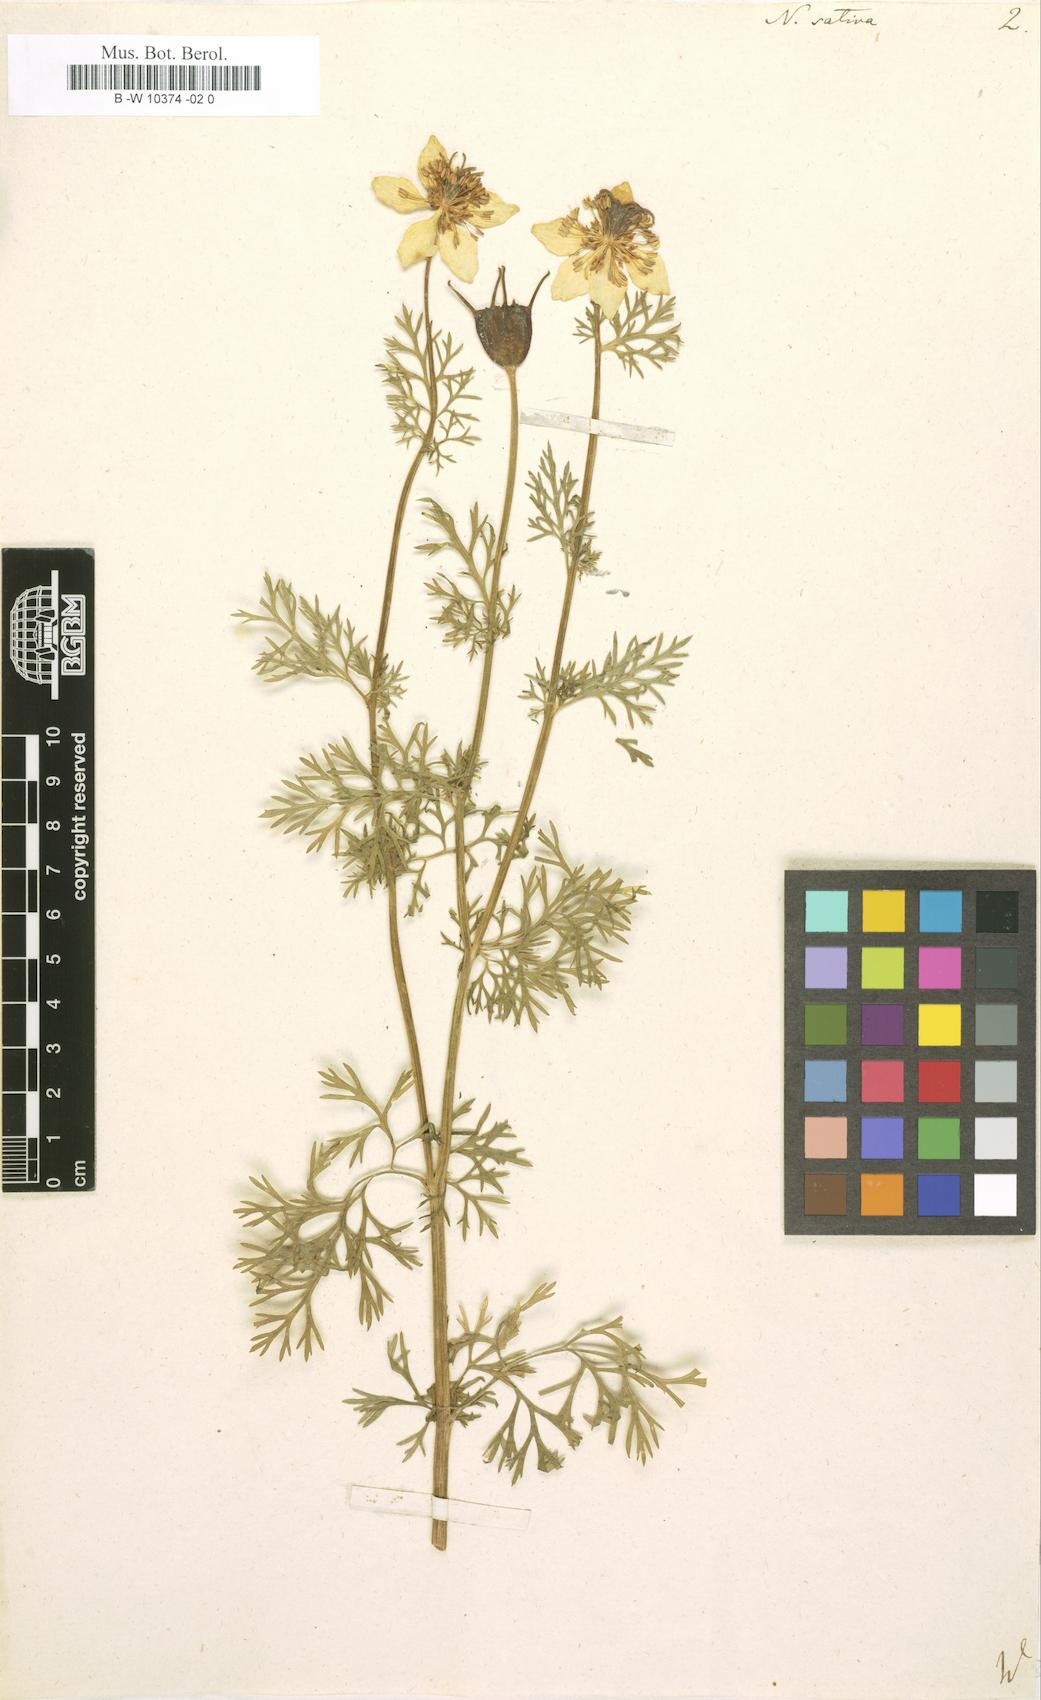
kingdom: Plantae
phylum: Tracheophyta
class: Magnoliopsida
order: Ranunculales
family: Ranunculaceae
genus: Nigella
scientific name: Nigella sativa
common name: Black-cumin
